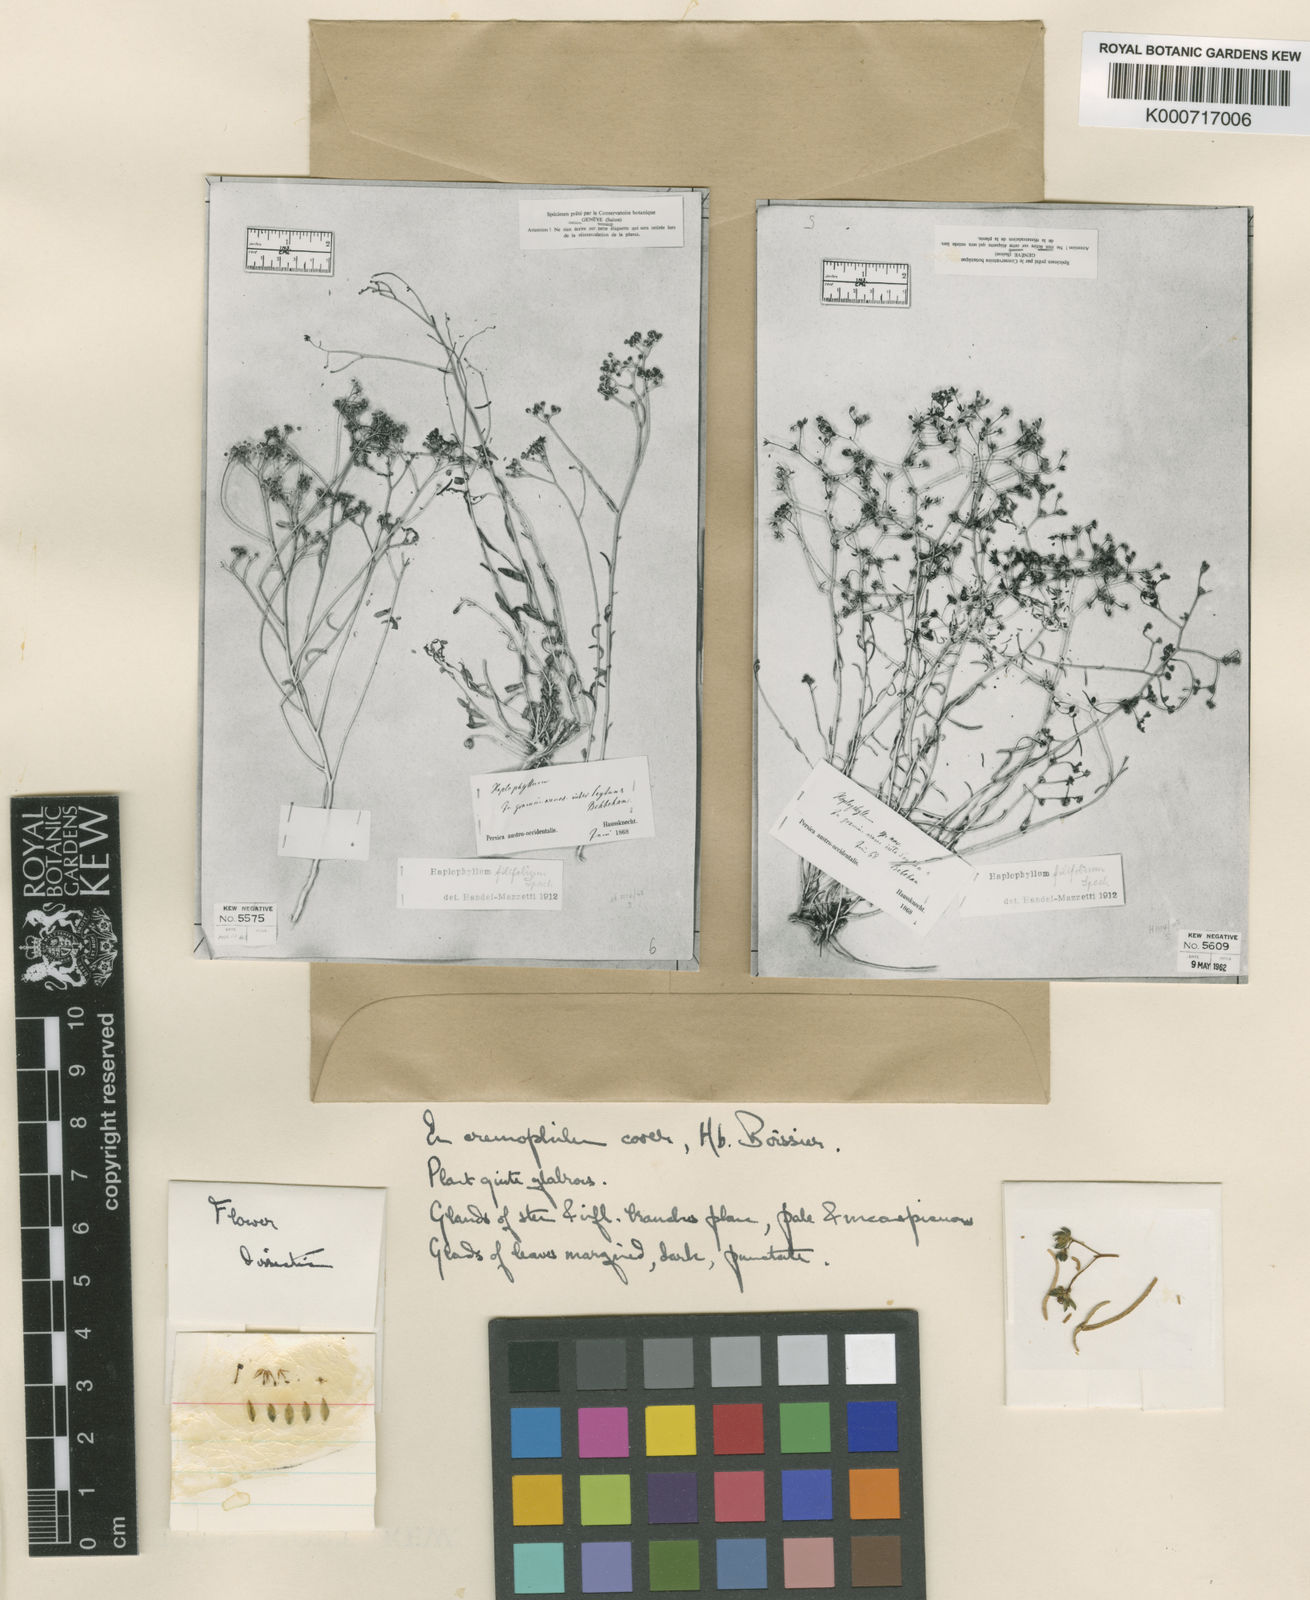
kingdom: Plantae
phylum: Tracheophyta
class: Magnoliopsida
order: Sapindales
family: Rutaceae
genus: Haplophyllum
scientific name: Haplophyllum tuberculatum
